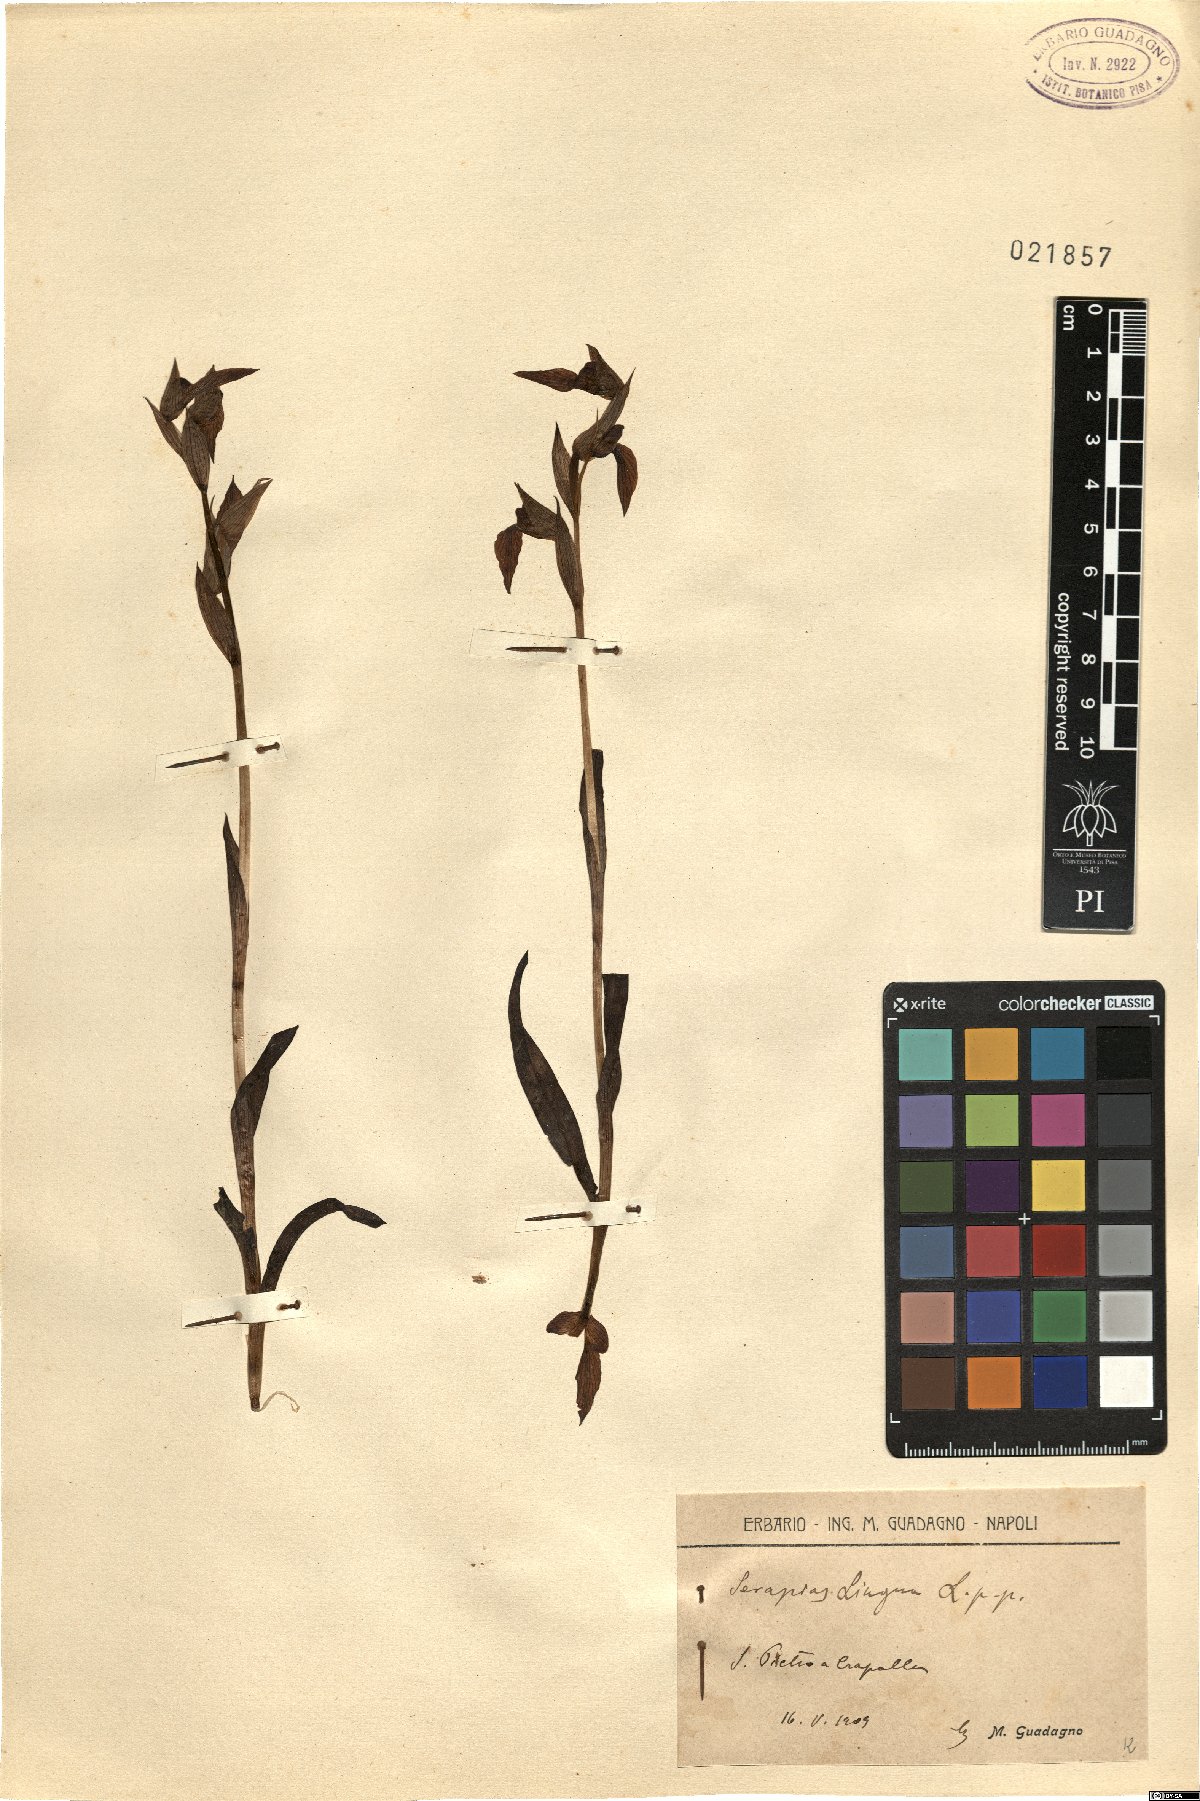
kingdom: Plantae
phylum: Tracheophyta
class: Liliopsida
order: Asparagales
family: Orchidaceae
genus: Serapias
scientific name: Serapias lingua
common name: Tongue-orchid
